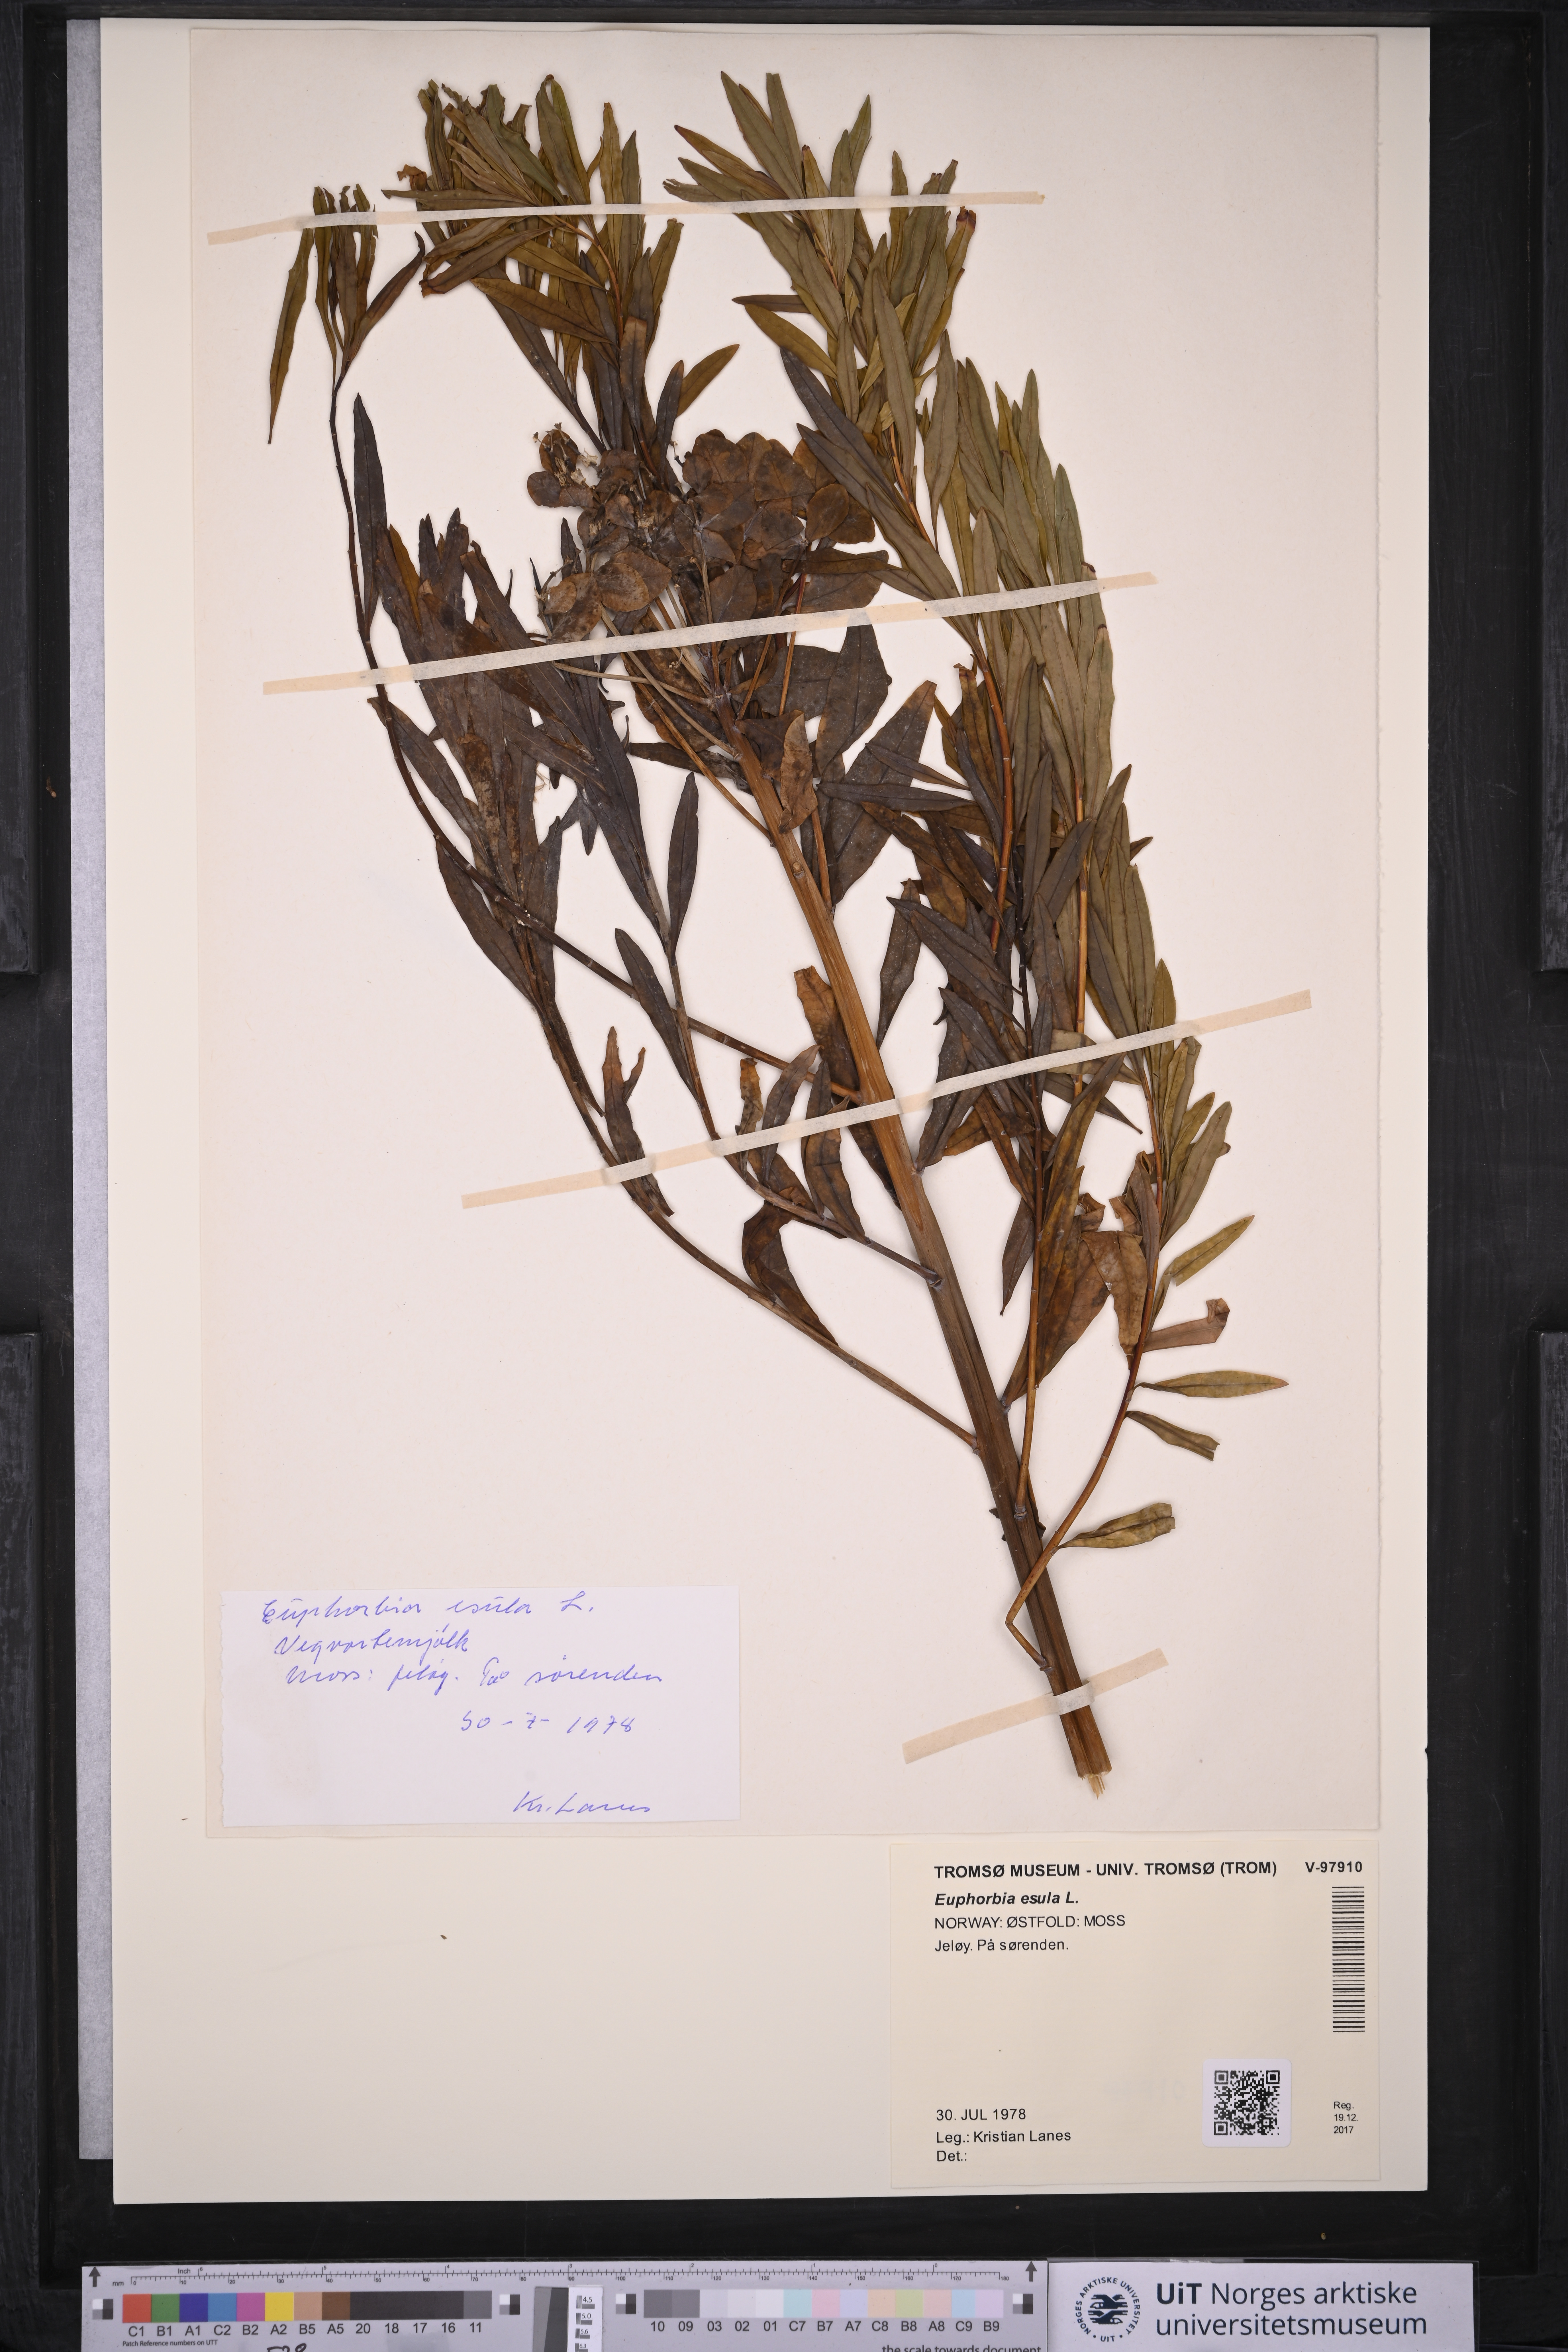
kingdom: Plantae
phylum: Tracheophyta
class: Magnoliopsida
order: Malpighiales
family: Euphorbiaceae
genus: Euphorbia
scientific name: Euphorbia esula
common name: Leafy spurge
